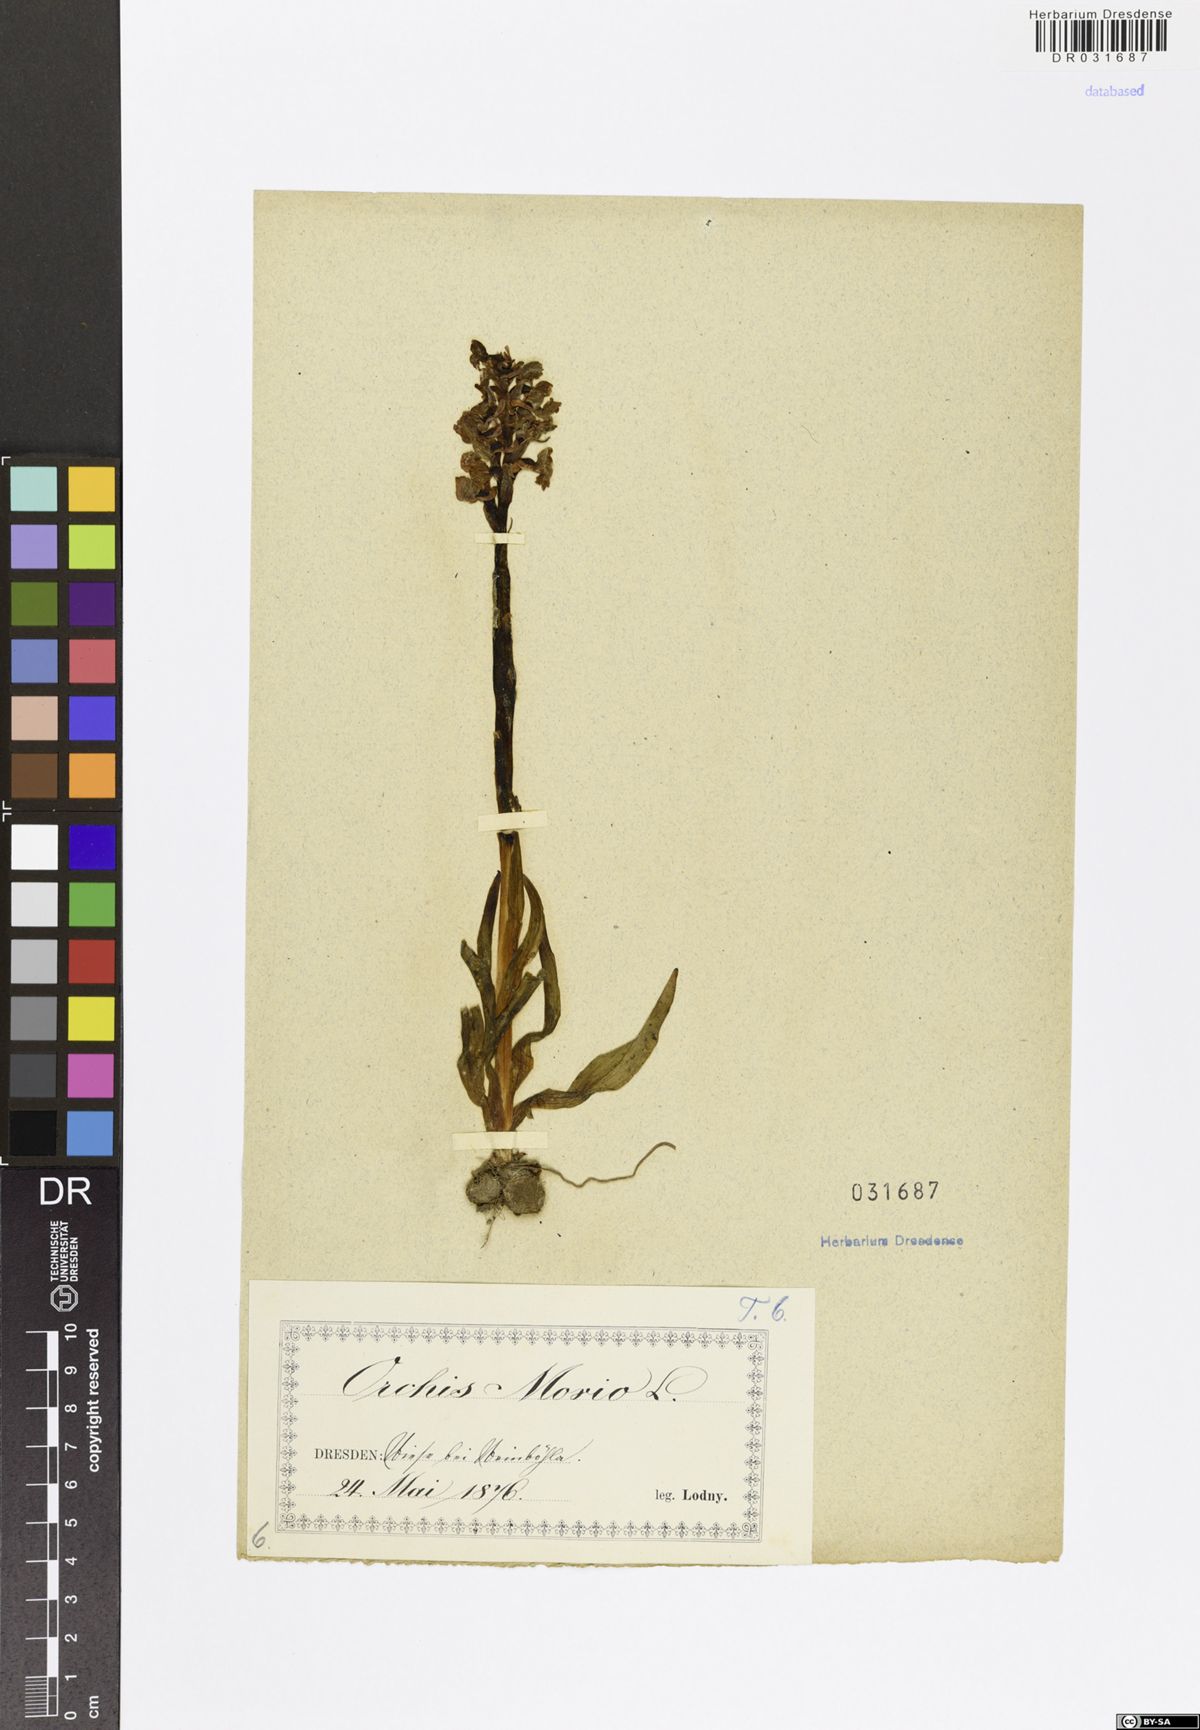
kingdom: Plantae
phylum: Tracheophyta
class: Liliopsida
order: Asparagales
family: Orchidaceae
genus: Anacamptis
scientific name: Anacamptis morio
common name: Green-winged orchid
